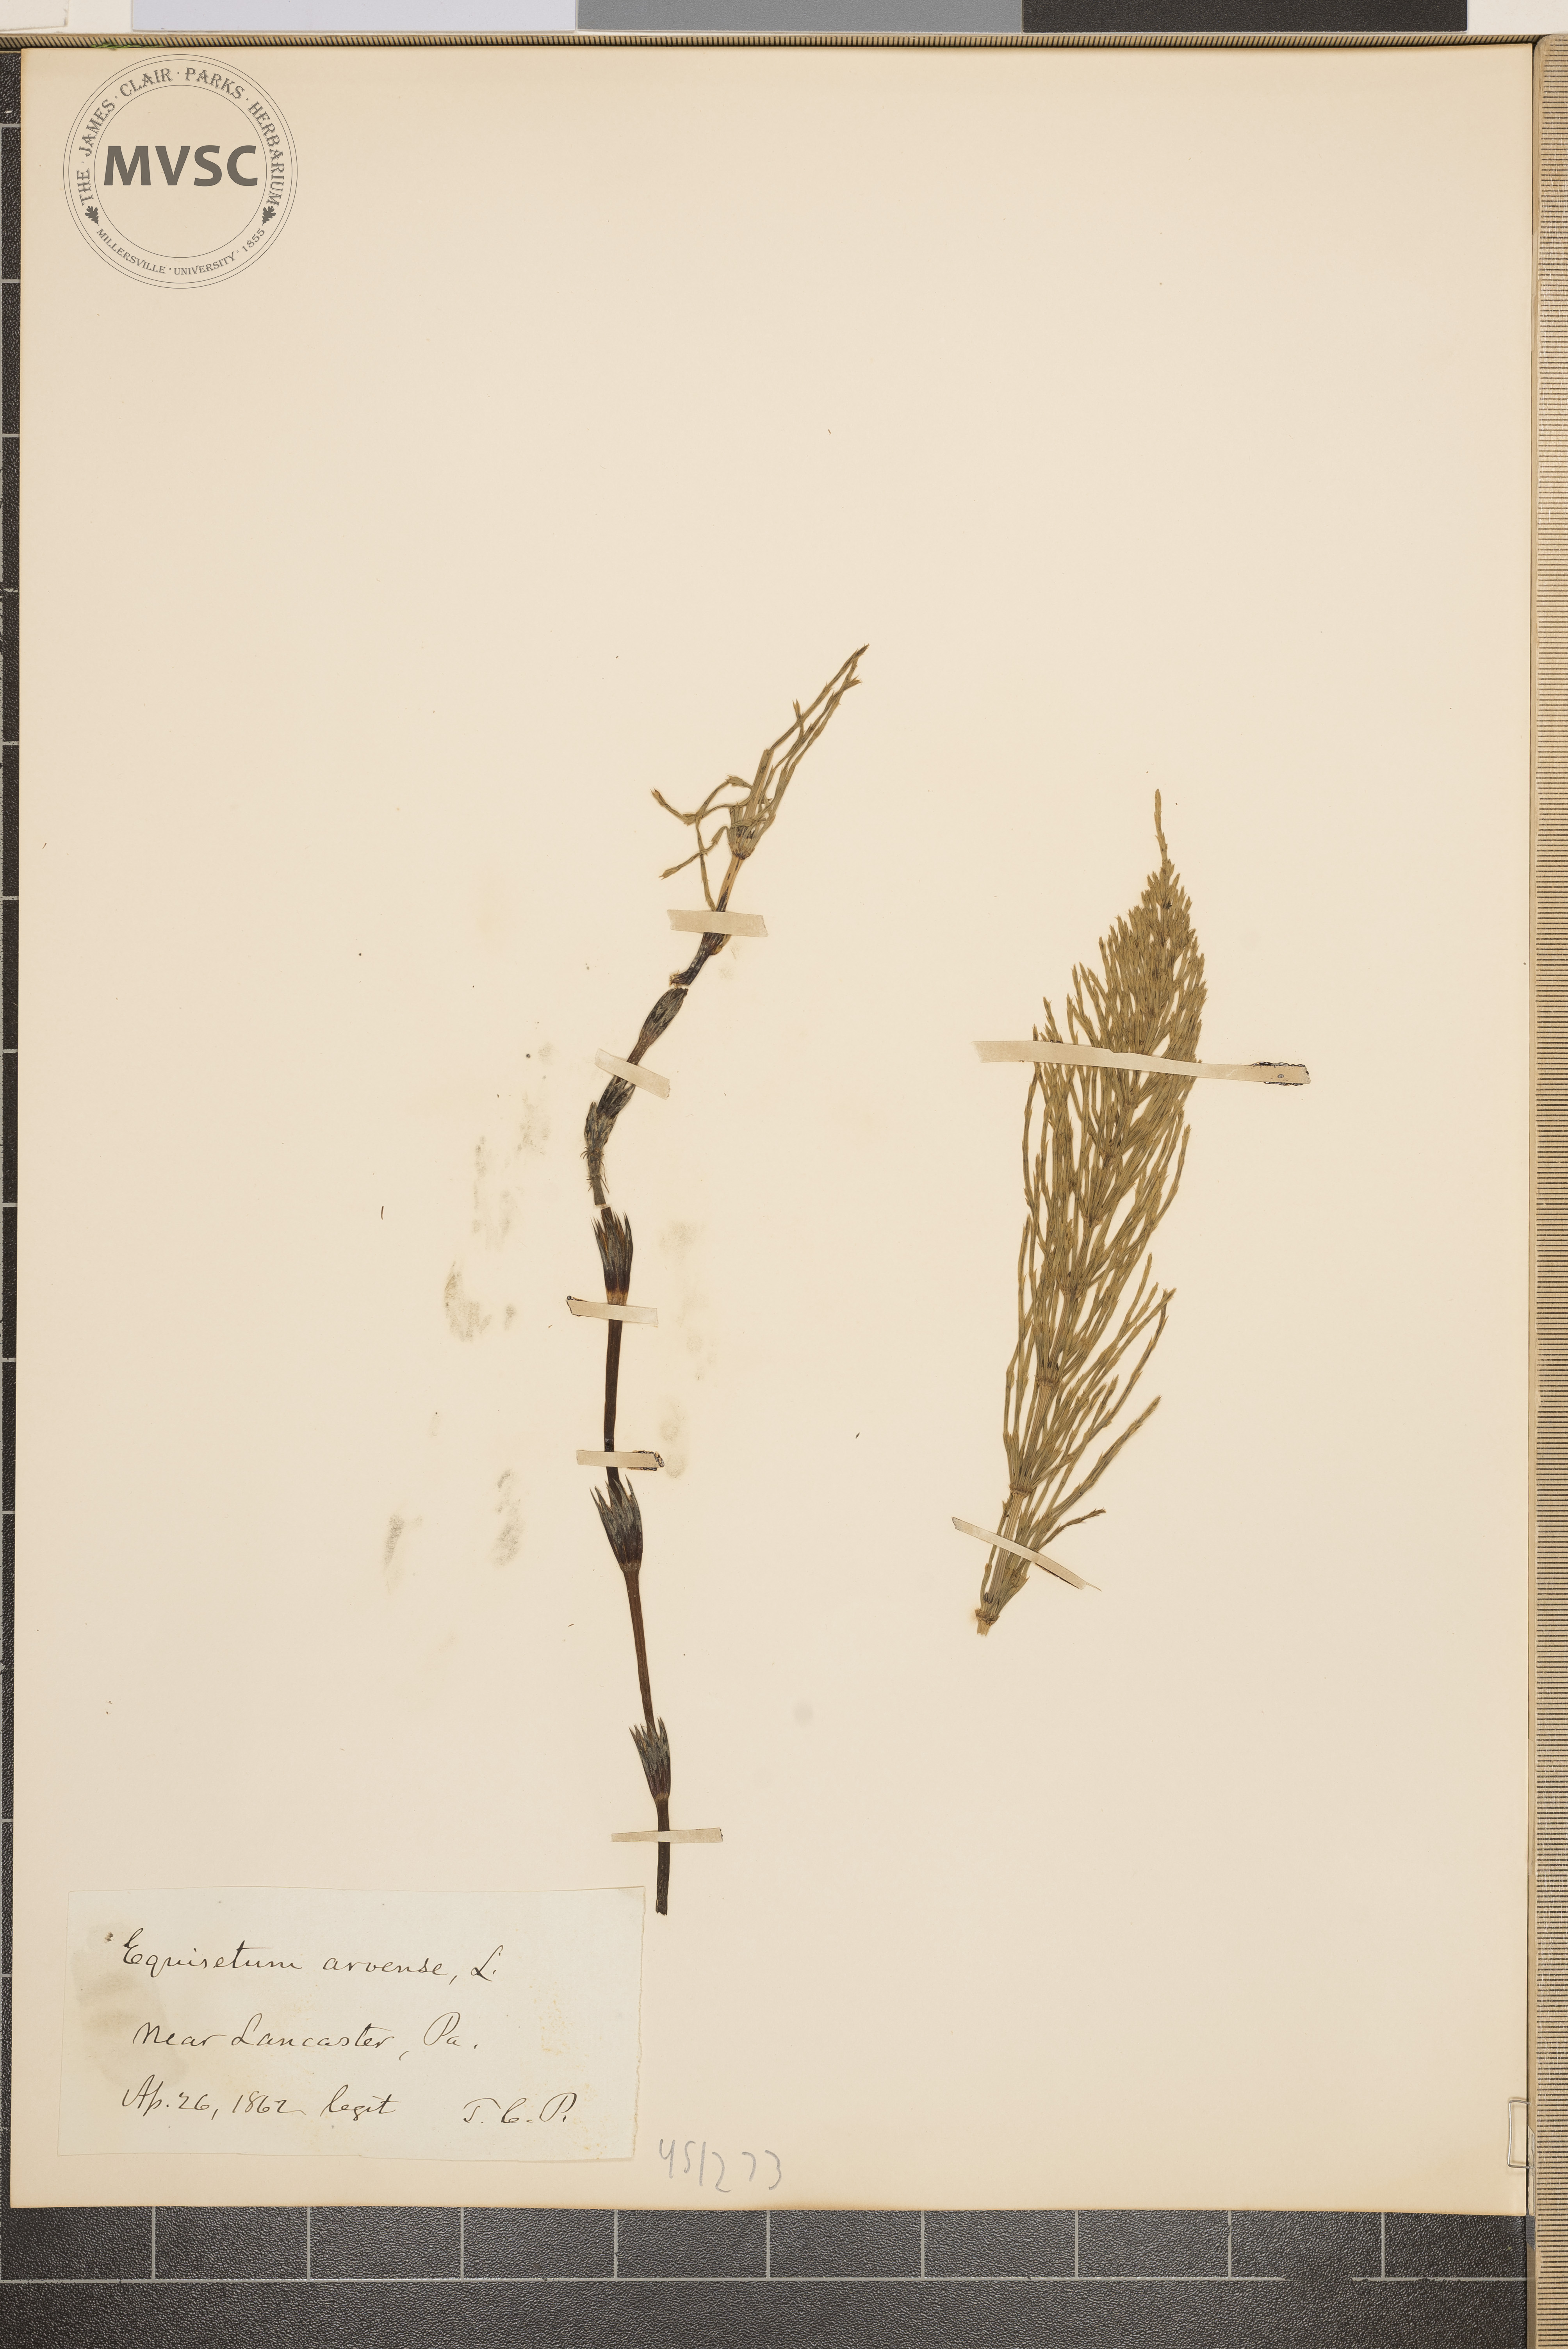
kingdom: Plantae
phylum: Tracheophyta
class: Polypodiopsida
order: Equisetales
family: Equisetaceae
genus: Equisetum
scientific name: Equisetum arvense
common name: Field horsetail
